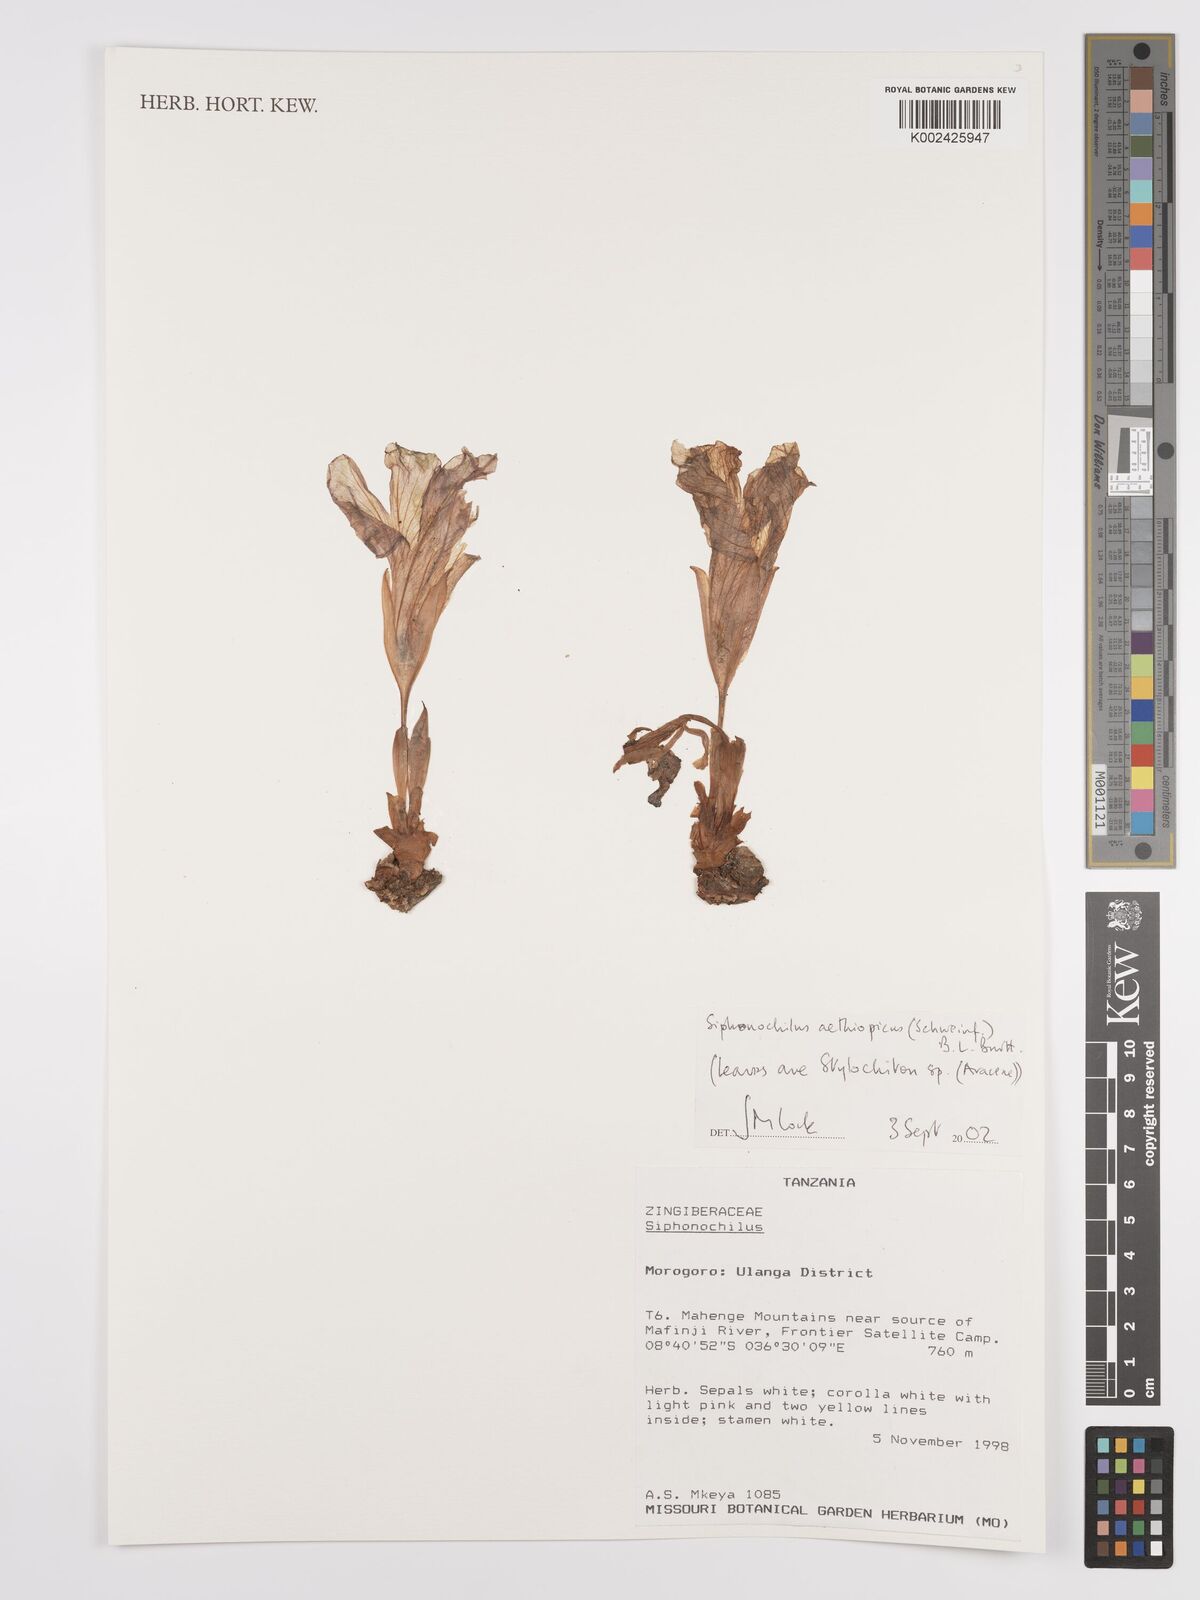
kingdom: Plantae
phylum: Tracheophyta
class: Liliopsida
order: Zingiberales
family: Zingiberaceae
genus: Siphonochilus
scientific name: Siphonochilus aethiopicus
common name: African-ginger
